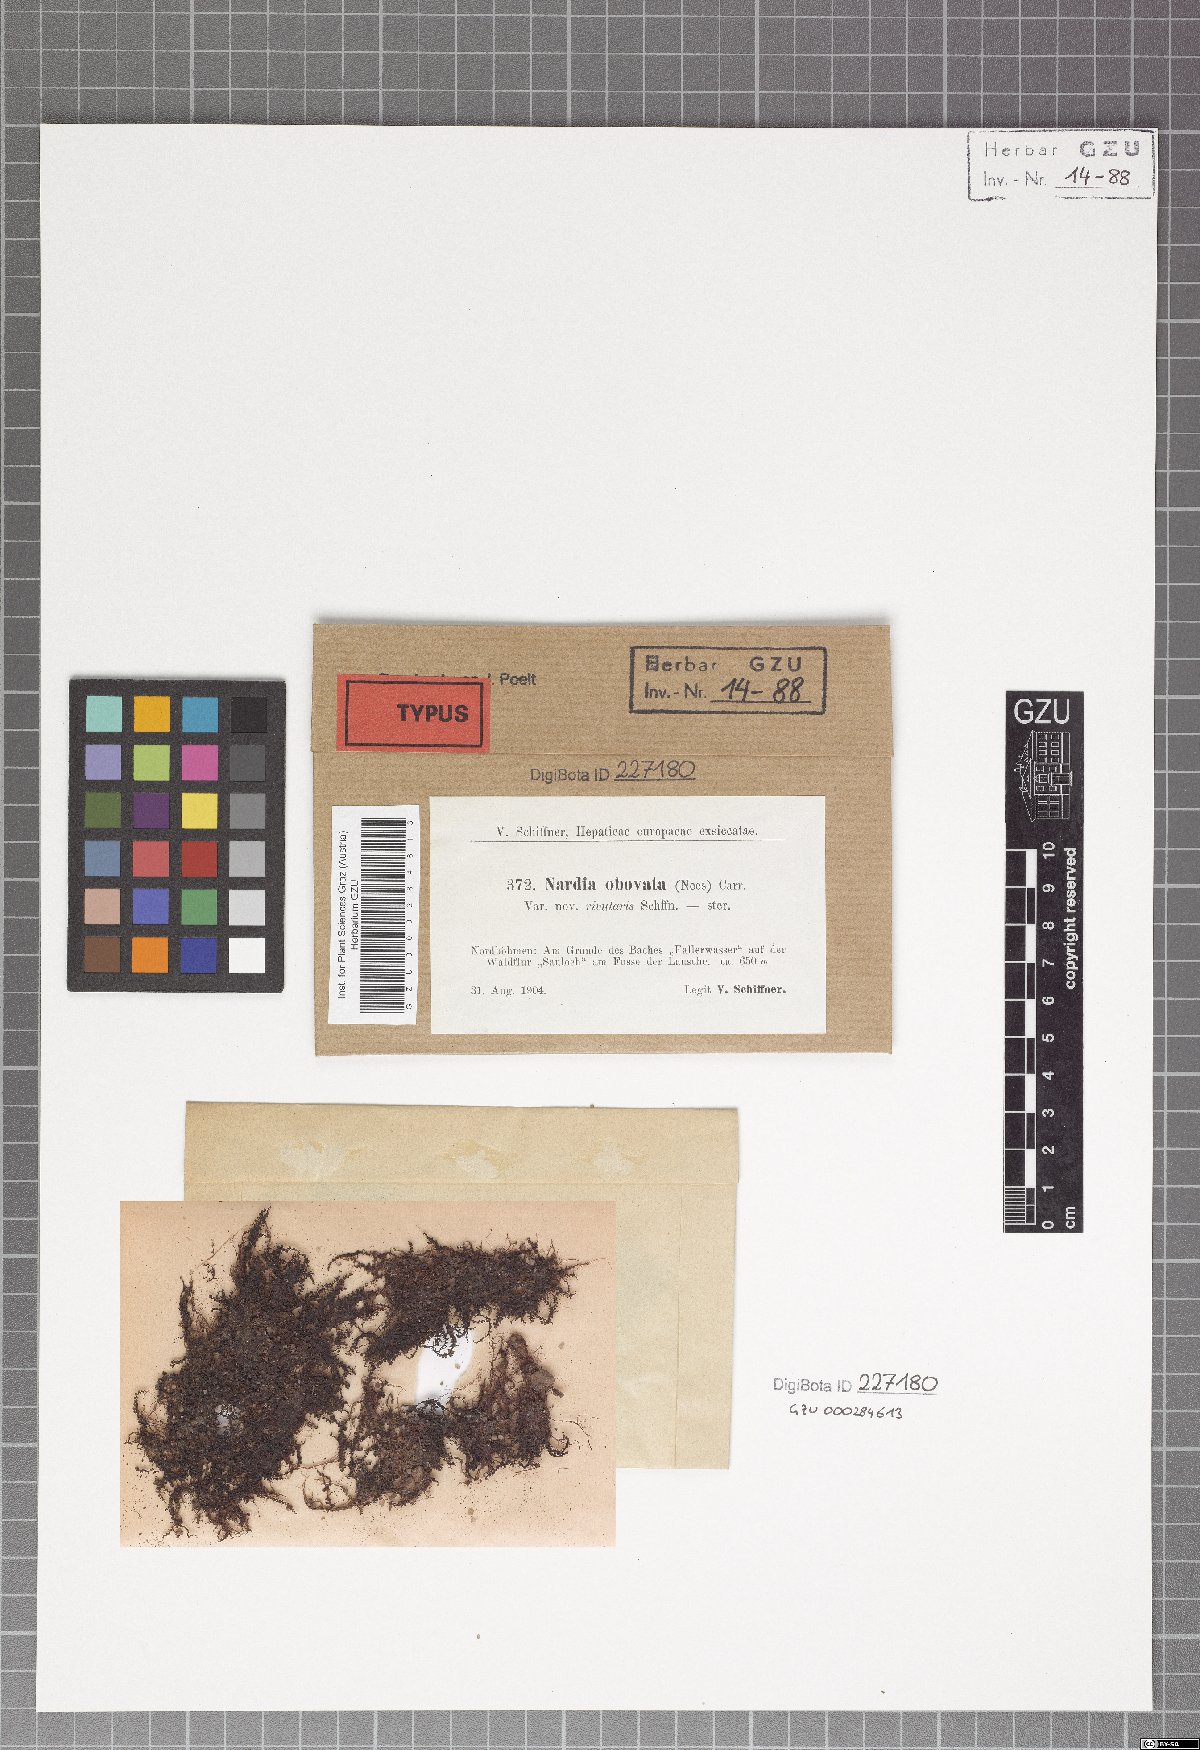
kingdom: Plantae
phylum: Marchantiophyta
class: Jungermanniopsida
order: Jungermanniales
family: Solenostomataceae
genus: Solenostoma
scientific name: Solenostoma obovatum
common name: Egg flapwort
